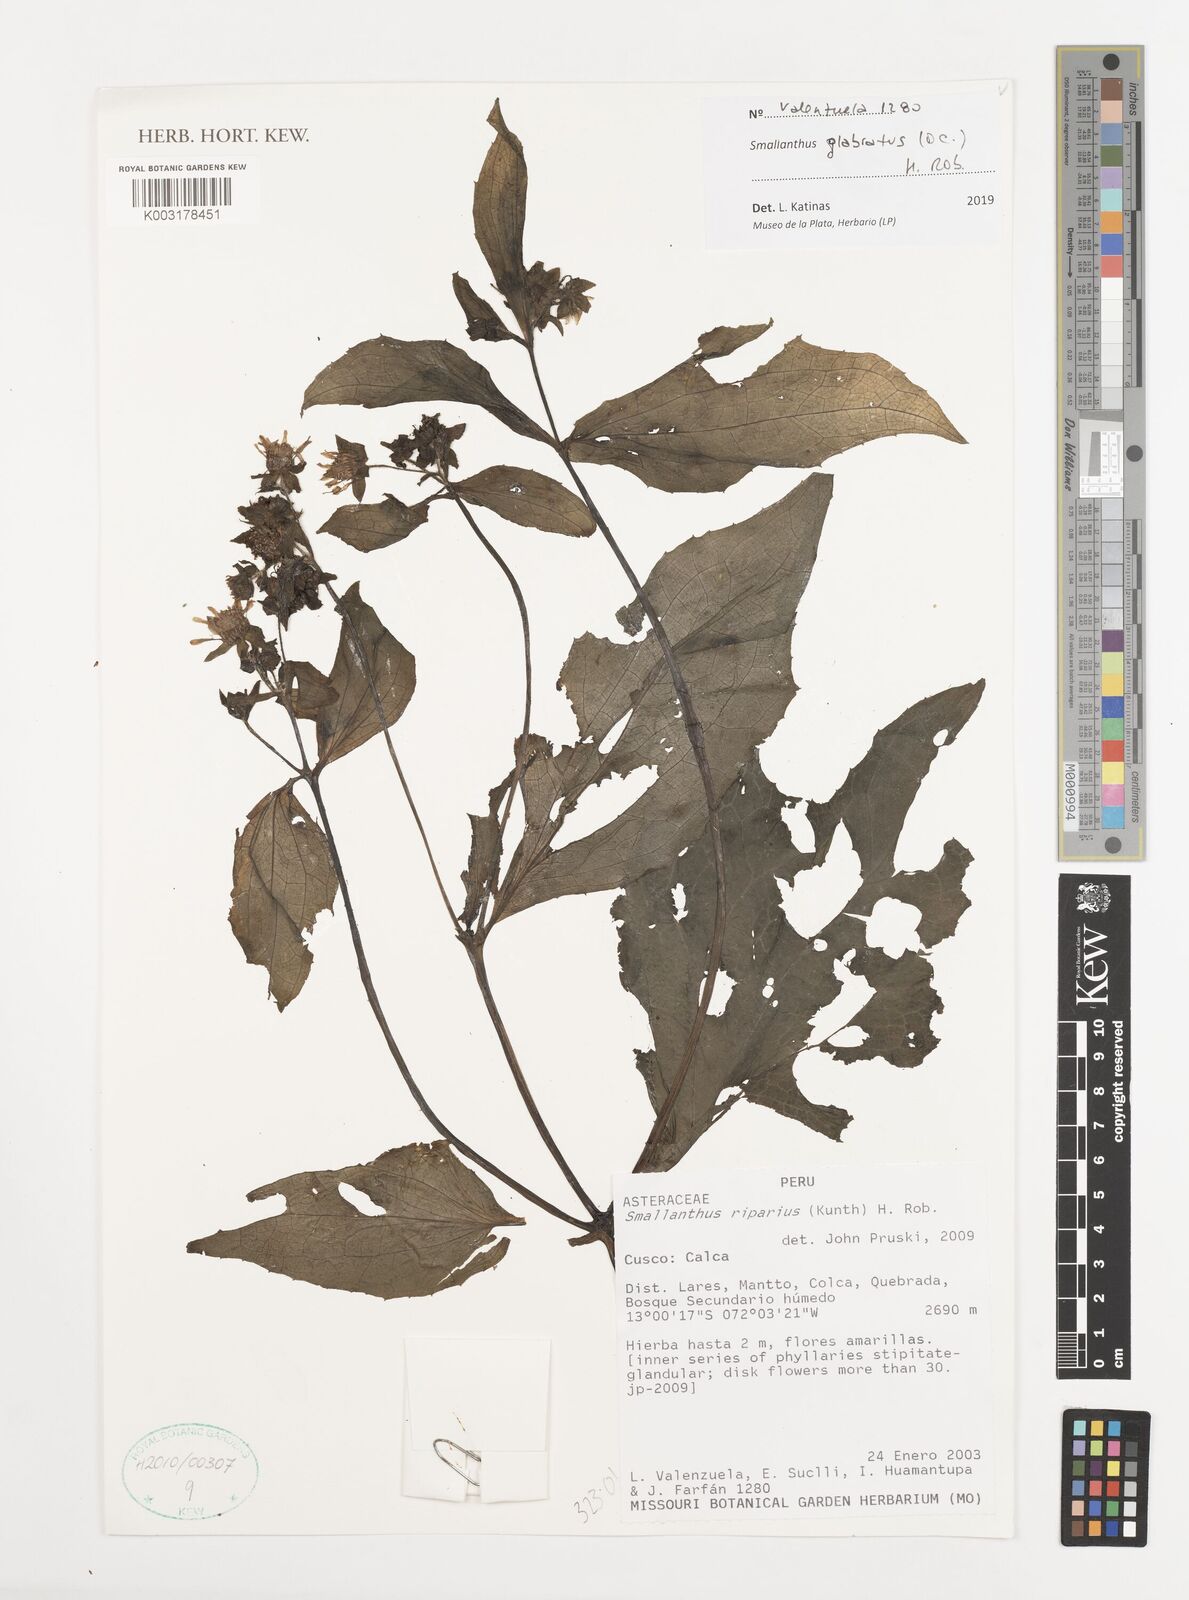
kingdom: Plantae
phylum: Tracheophyta
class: Magnoliopsida
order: Asterales
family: Asteraceae
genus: Smallanthus
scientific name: Smallanthus glabratus
